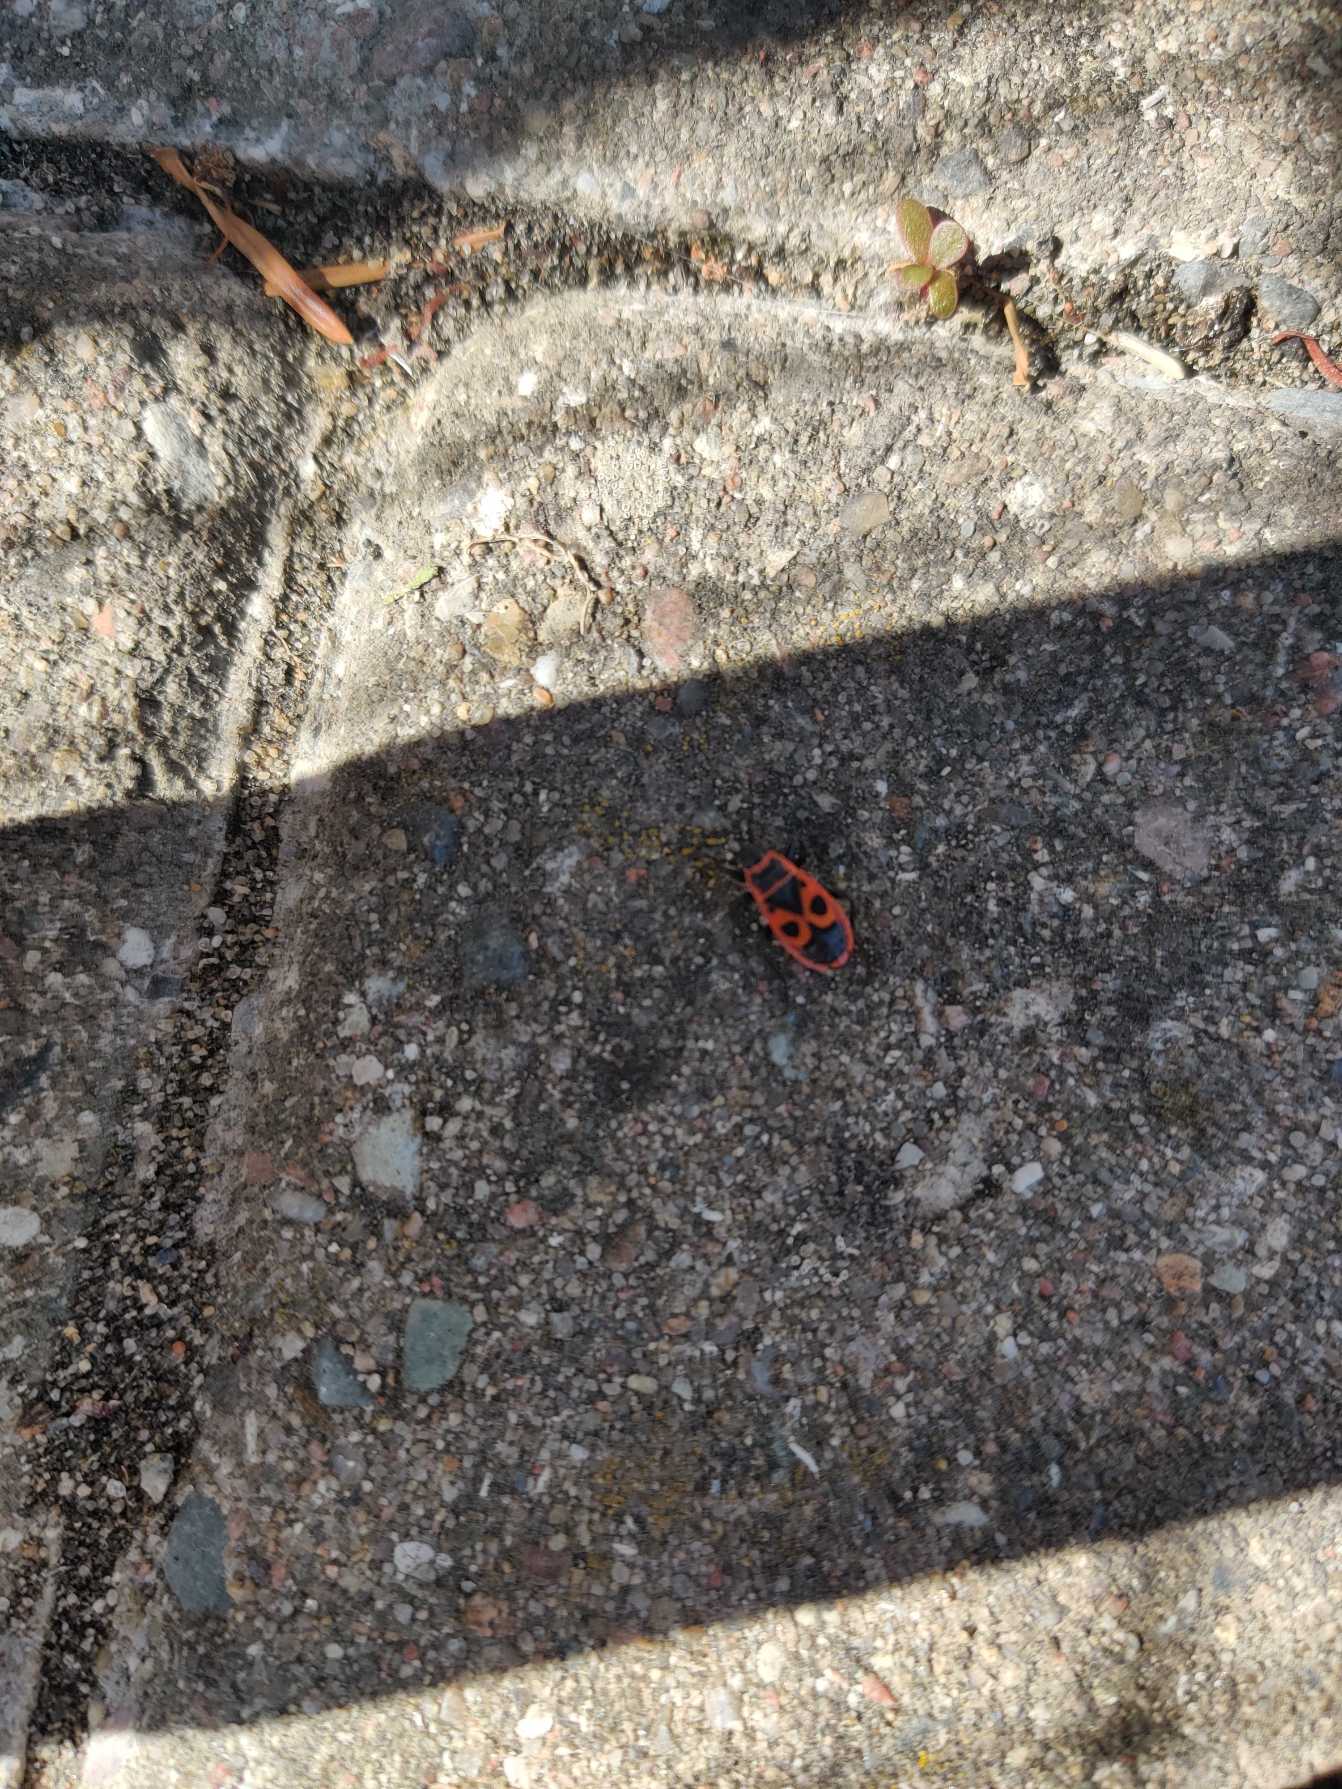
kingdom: Animalia
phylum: Arthropoda
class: Insecta
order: Hemiptera
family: Pyrrhocoridae
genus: Pyrrhocoris
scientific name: Pyrrhocoris apterus
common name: Ildtæge
